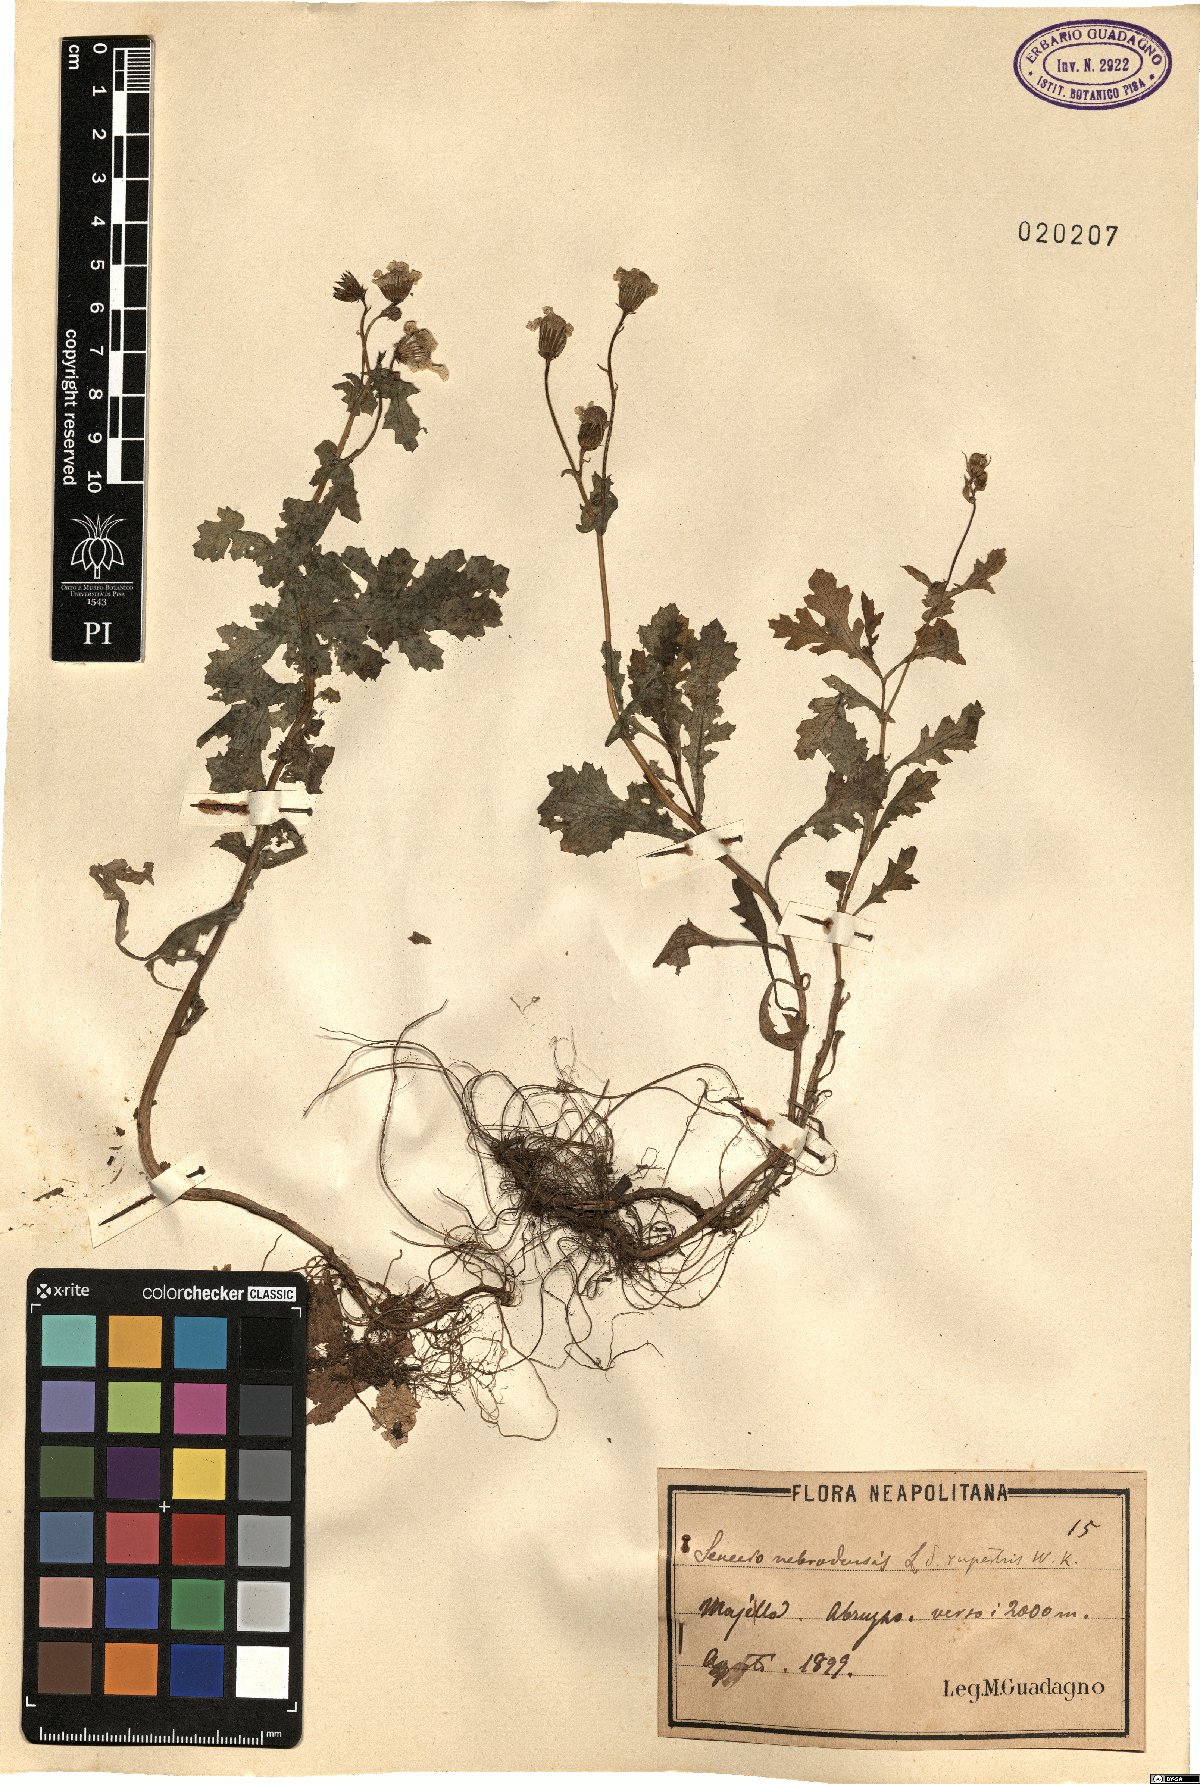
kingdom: Plantae
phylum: Tracheophyta
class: Magnoliopsida
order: Asterales
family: Asteraceae
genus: Senecio
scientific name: Senecio rupestris
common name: Rock ragwort
